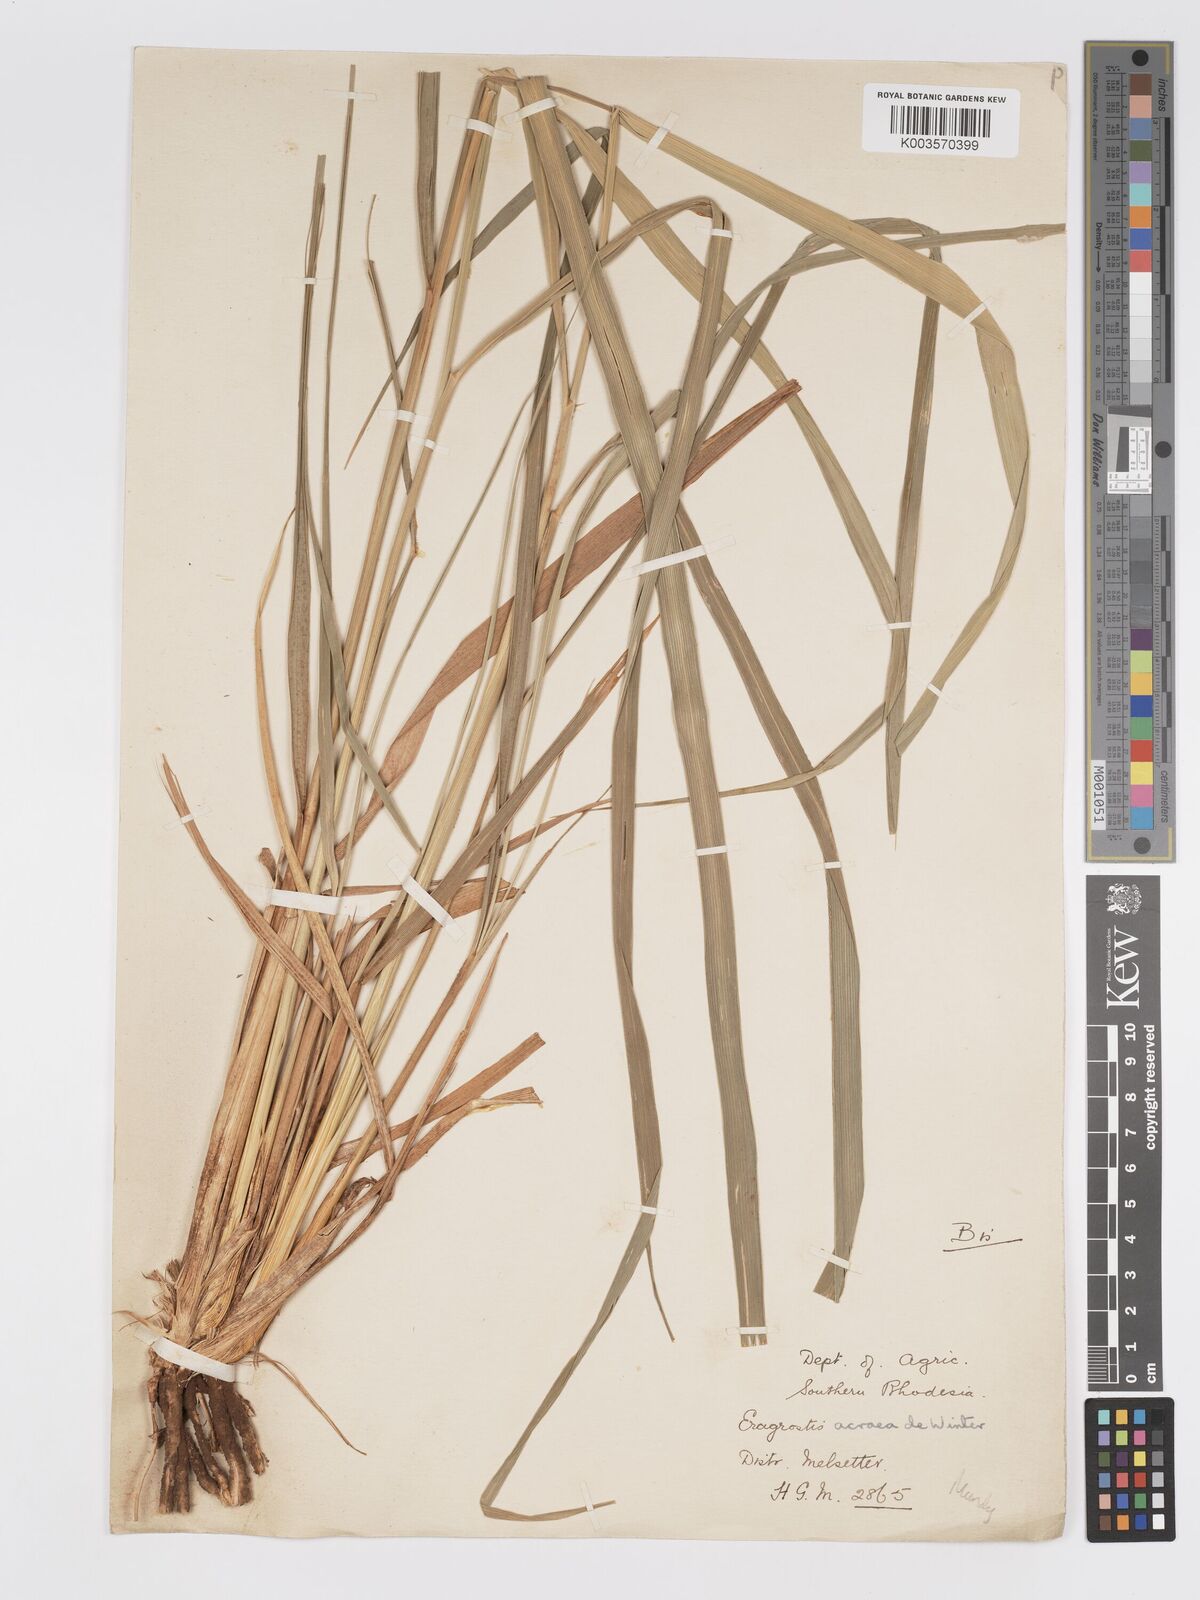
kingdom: Plantae
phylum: Tracheophyta
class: Liliopsida
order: Poales
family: Poaceae
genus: Eragrostis
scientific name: Eragrostis acraea
